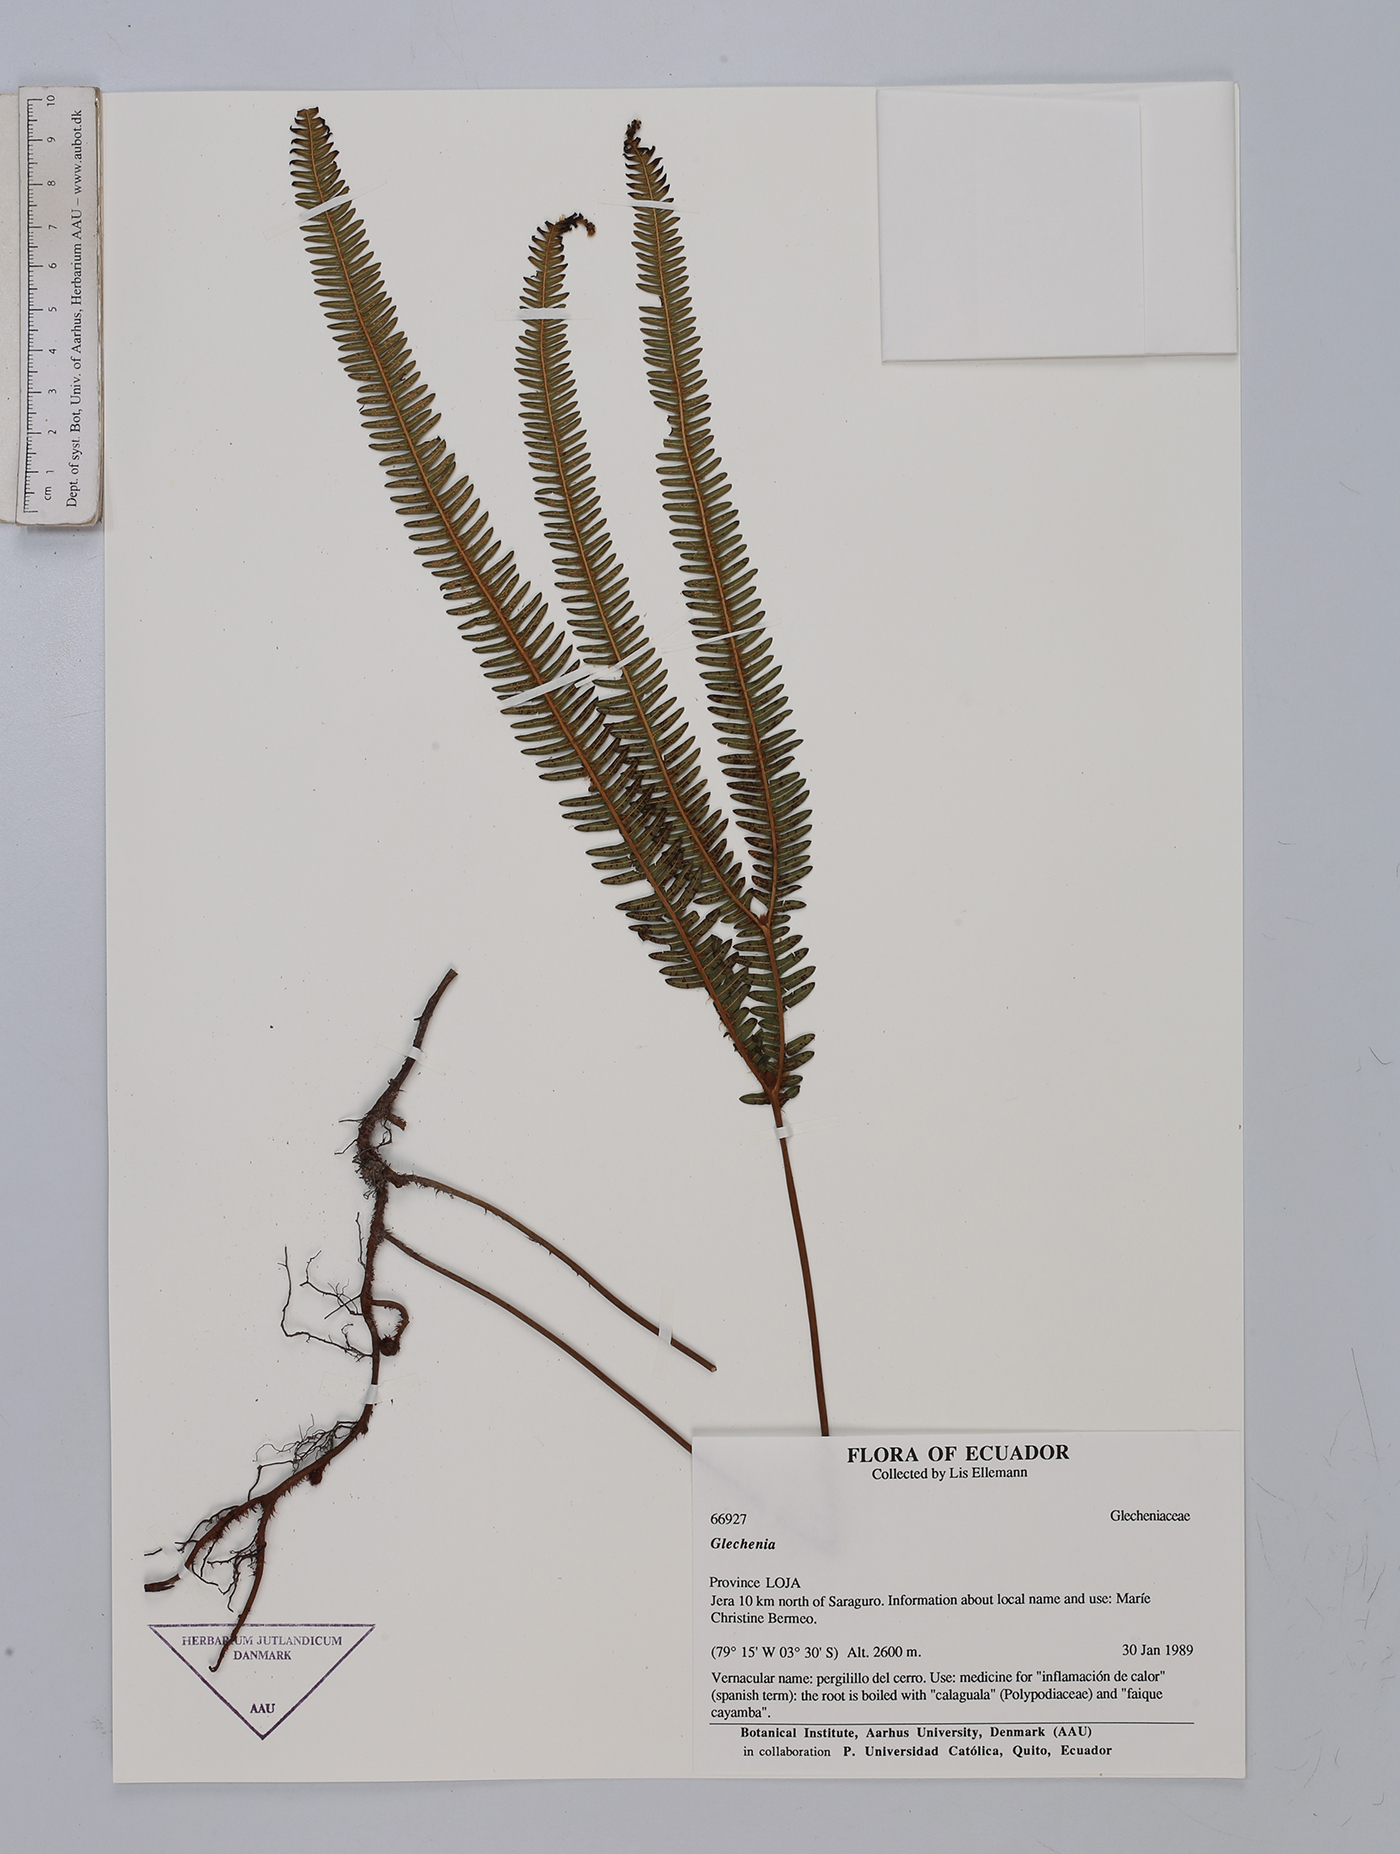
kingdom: Plantae
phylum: Tracheophyta
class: Polypodiopsida
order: Gleicheniales
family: Gleicheniaceae
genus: Gleichenia
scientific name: Gleichenia
